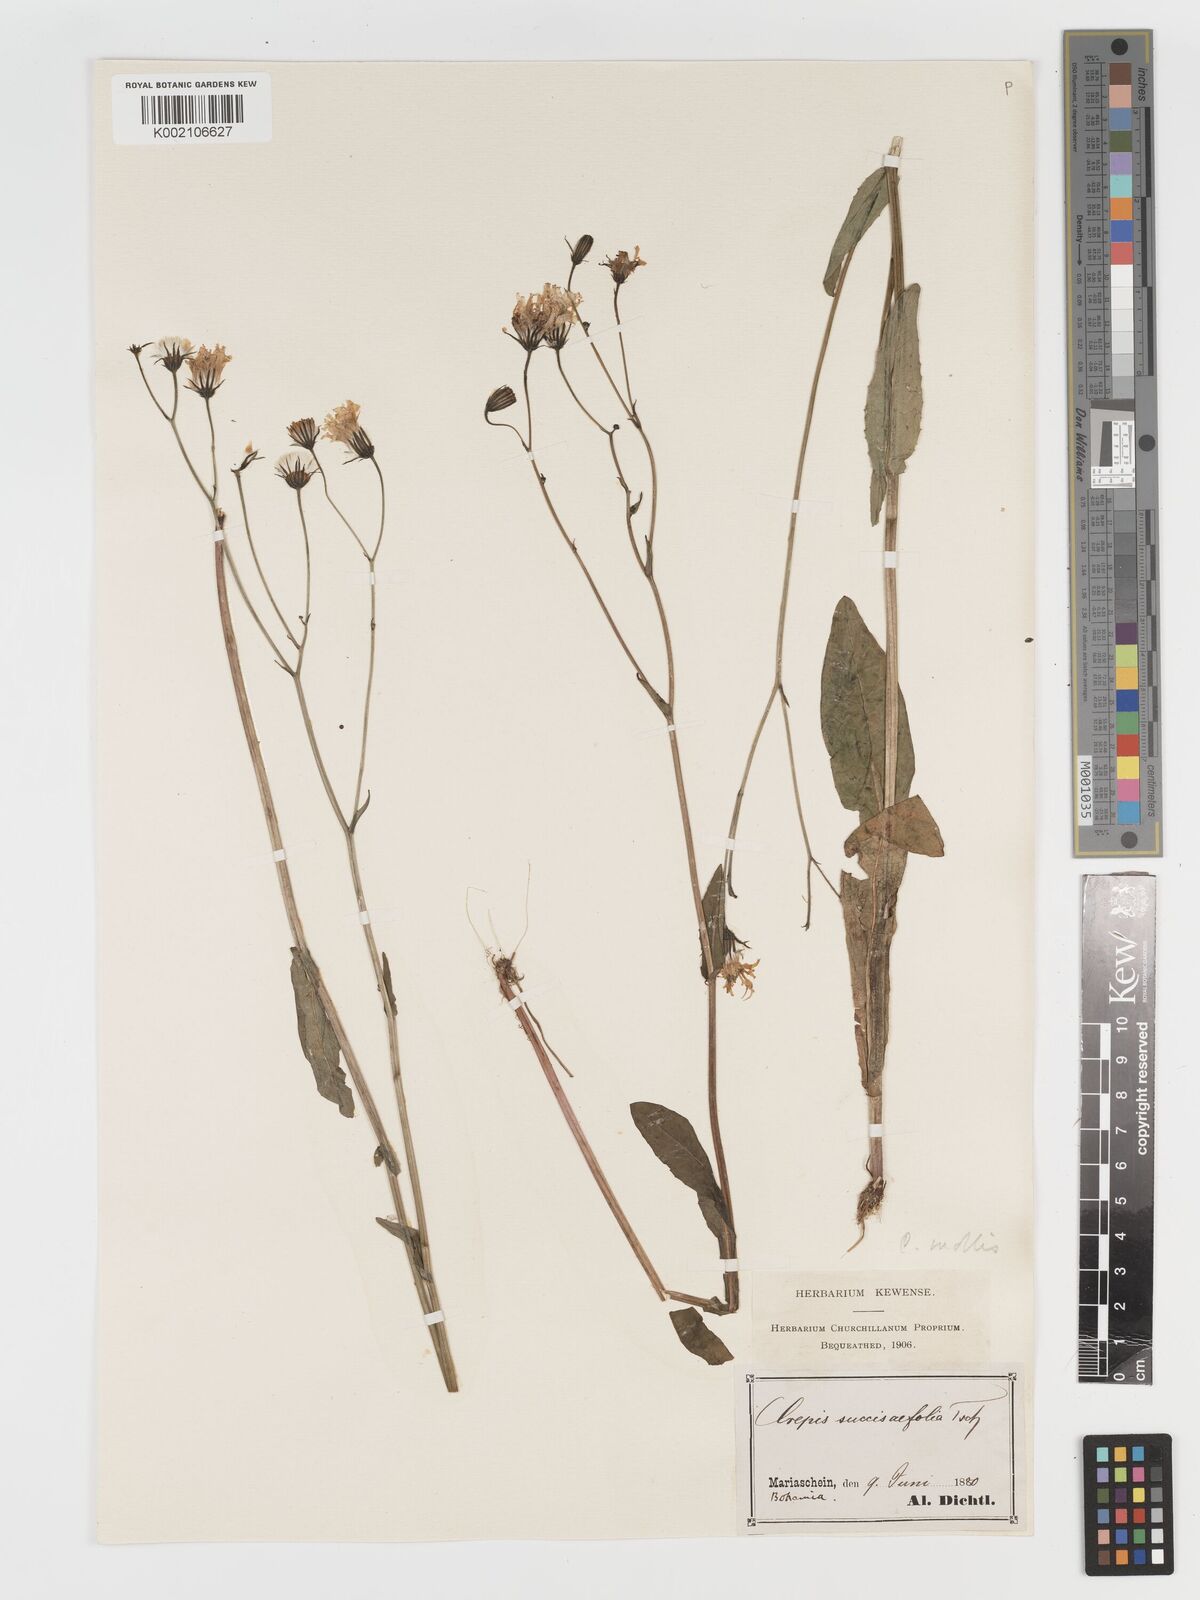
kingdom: Plantae
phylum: Tracheophyta
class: Magnoliopsida
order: Asterales
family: Asteraceae
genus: Crepis
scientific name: Crepis mollis
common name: Northern hawk's-beard
